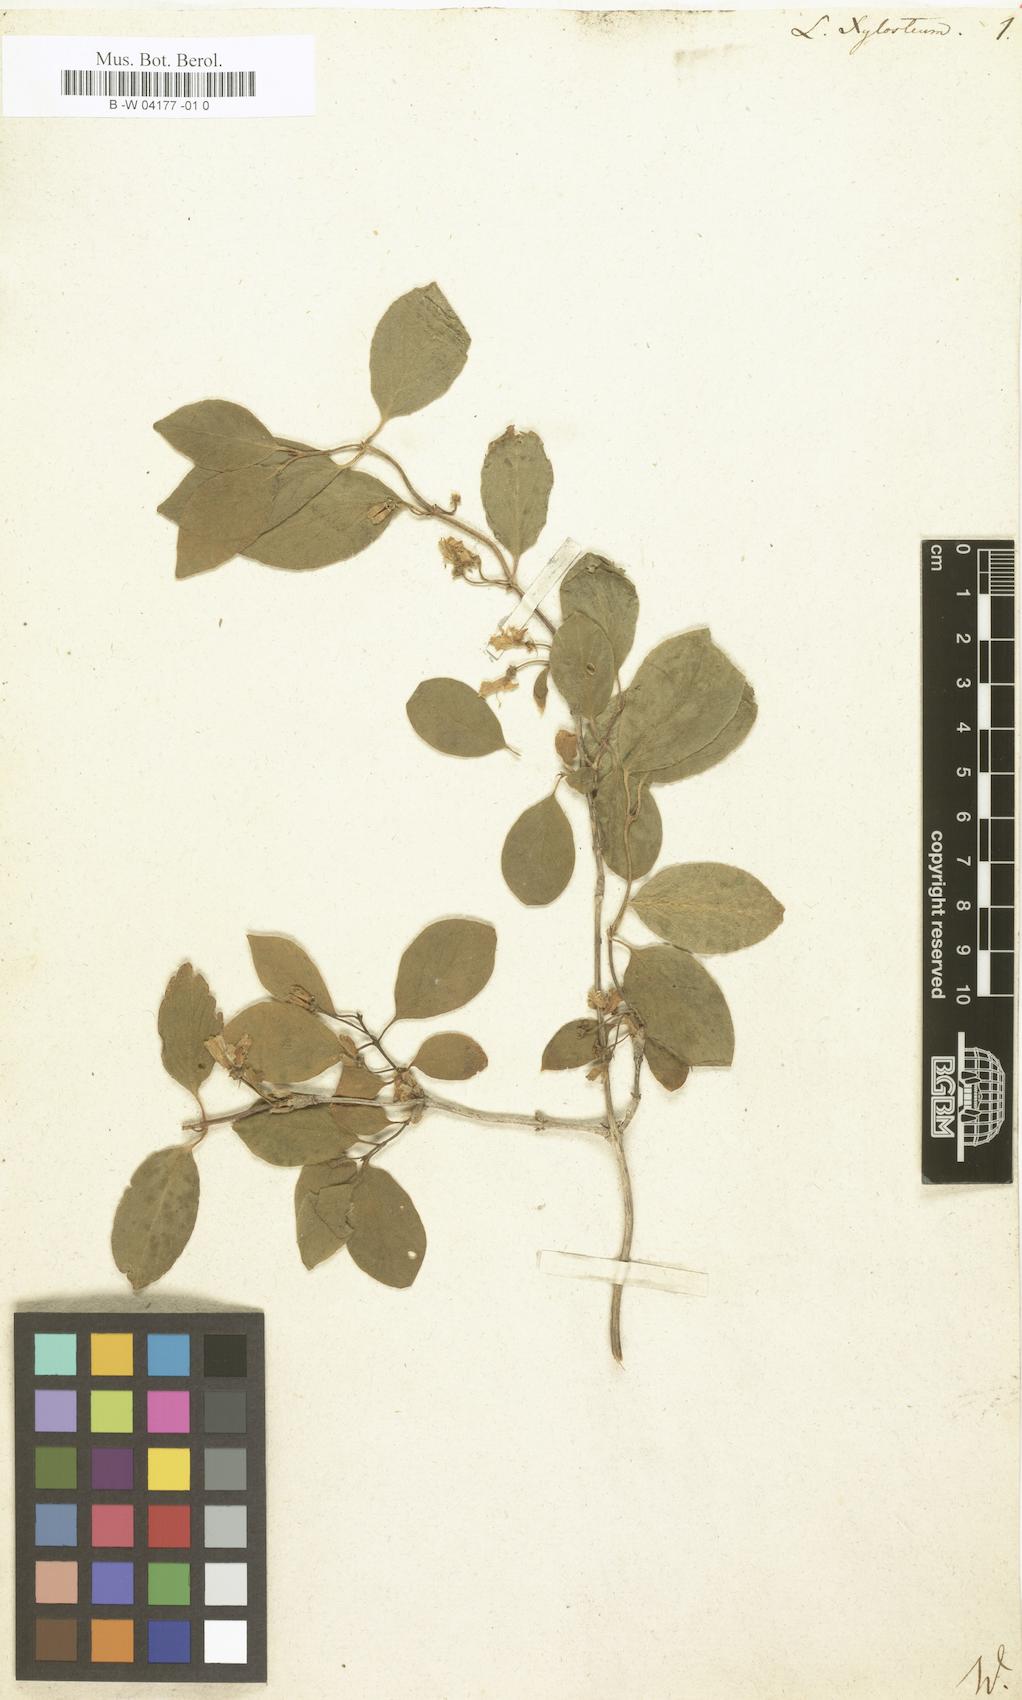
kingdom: Plantae
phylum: Tracheophyta
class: Magnoliopsida
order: Dipsacales
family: Caprifoliaceae
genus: Lonicera
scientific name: Lonicera xylosteum
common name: Fly honeysuckle
